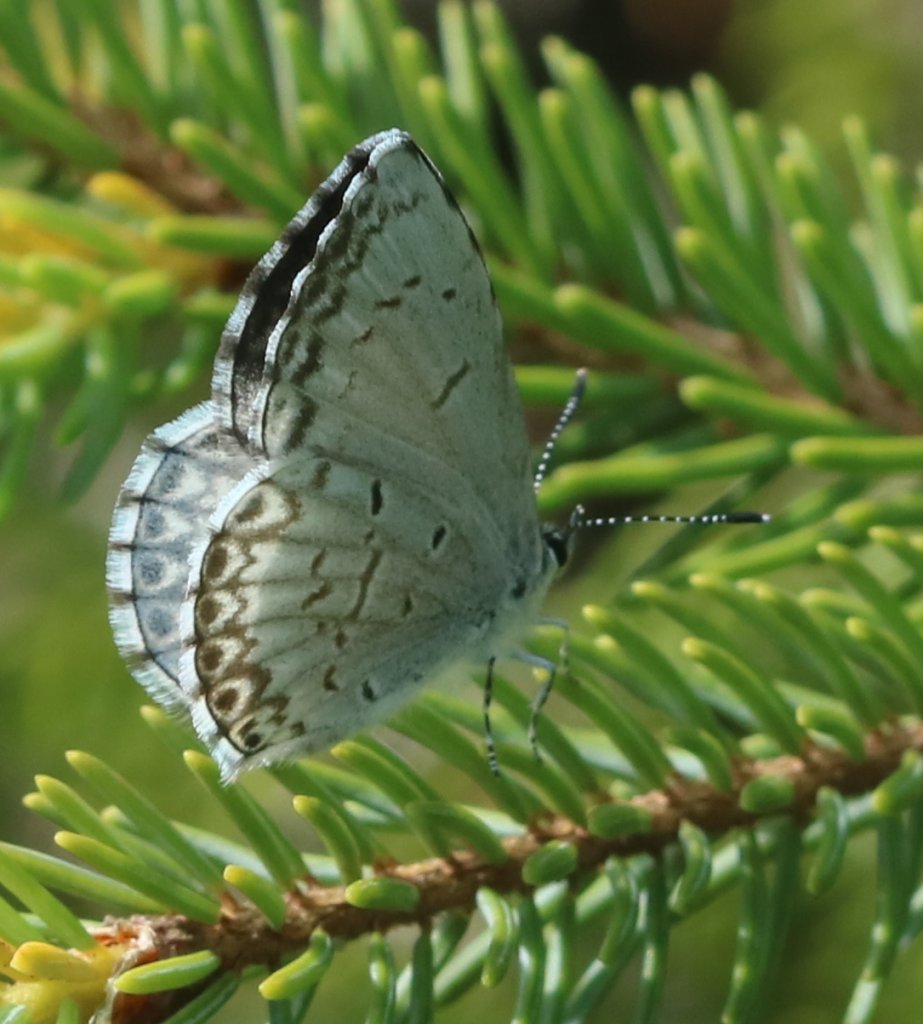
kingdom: Animalia
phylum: Arthropoda
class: Insecta
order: Lepidoptera
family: Lycaenidae
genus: Celastrina
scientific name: Celastrina lucia
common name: Northern Spring Azure
